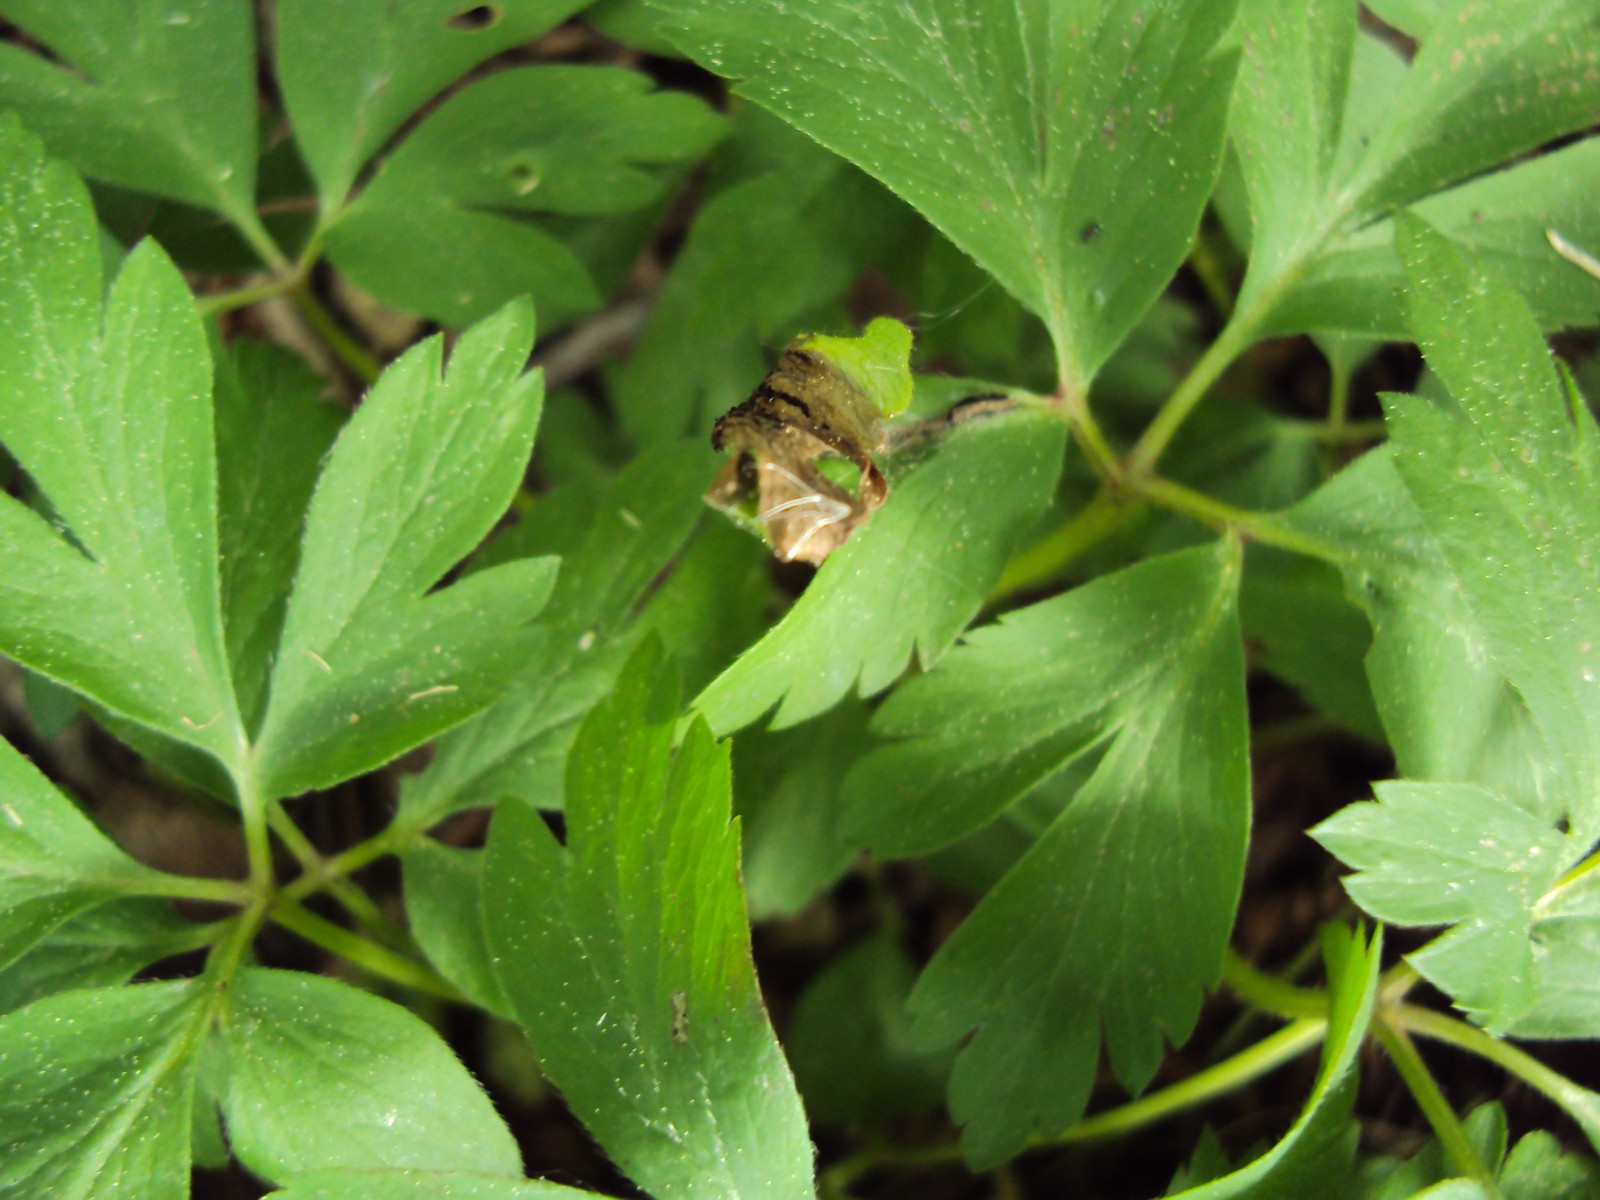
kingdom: Fungi
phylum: Basidiomycota
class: Ustilaginomycetes
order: Urocystidales
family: Urocystidaceae
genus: Urocystis
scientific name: Urocystis anemones
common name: anemone-brand
